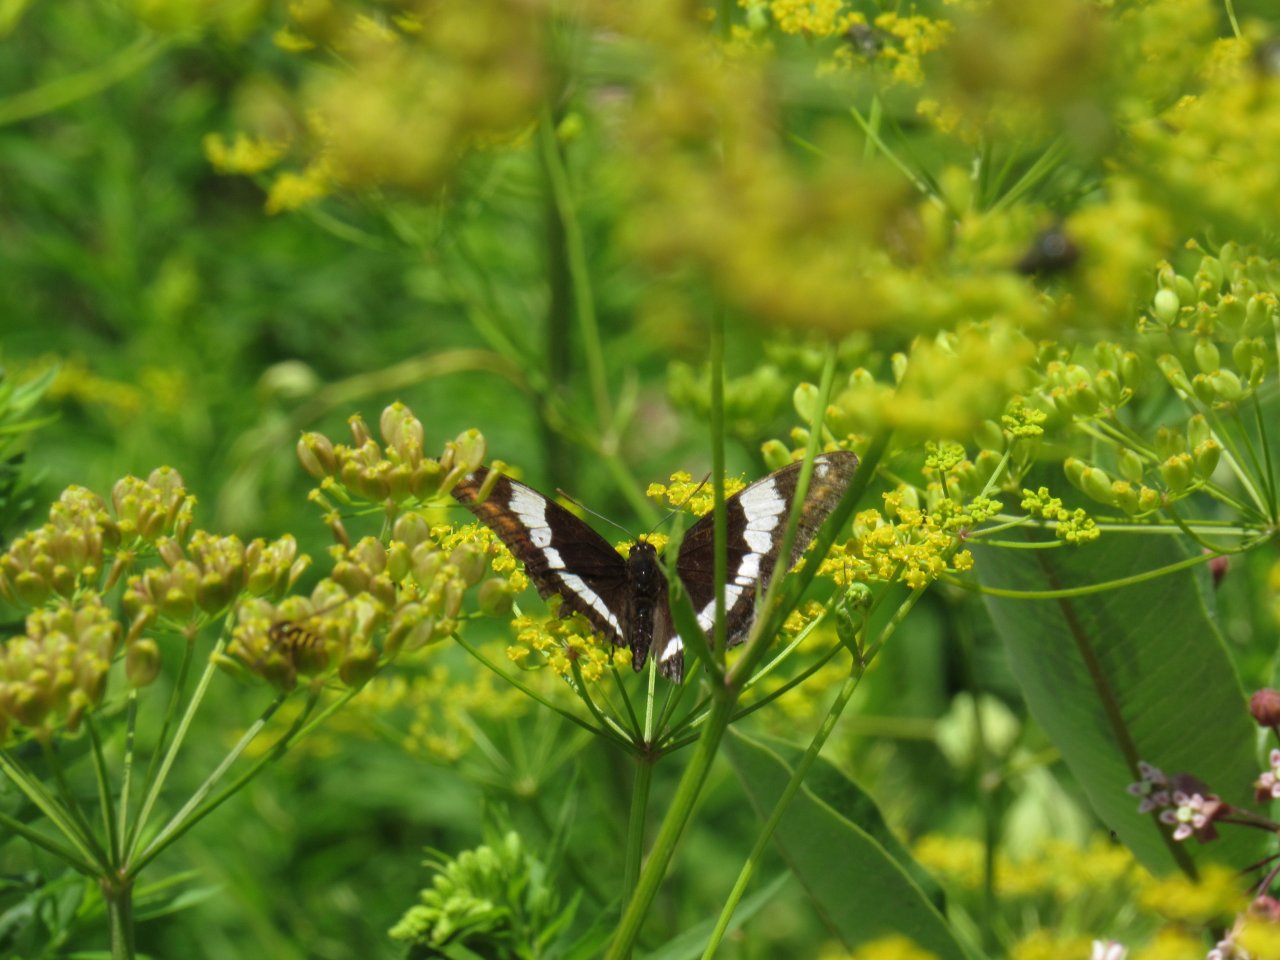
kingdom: Animalia
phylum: Arthropoda
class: Insecta
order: Lepidoptera
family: Nymphalidae
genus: Limenitis
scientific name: Limenitis arthemis
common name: Red-spotted Admiral
